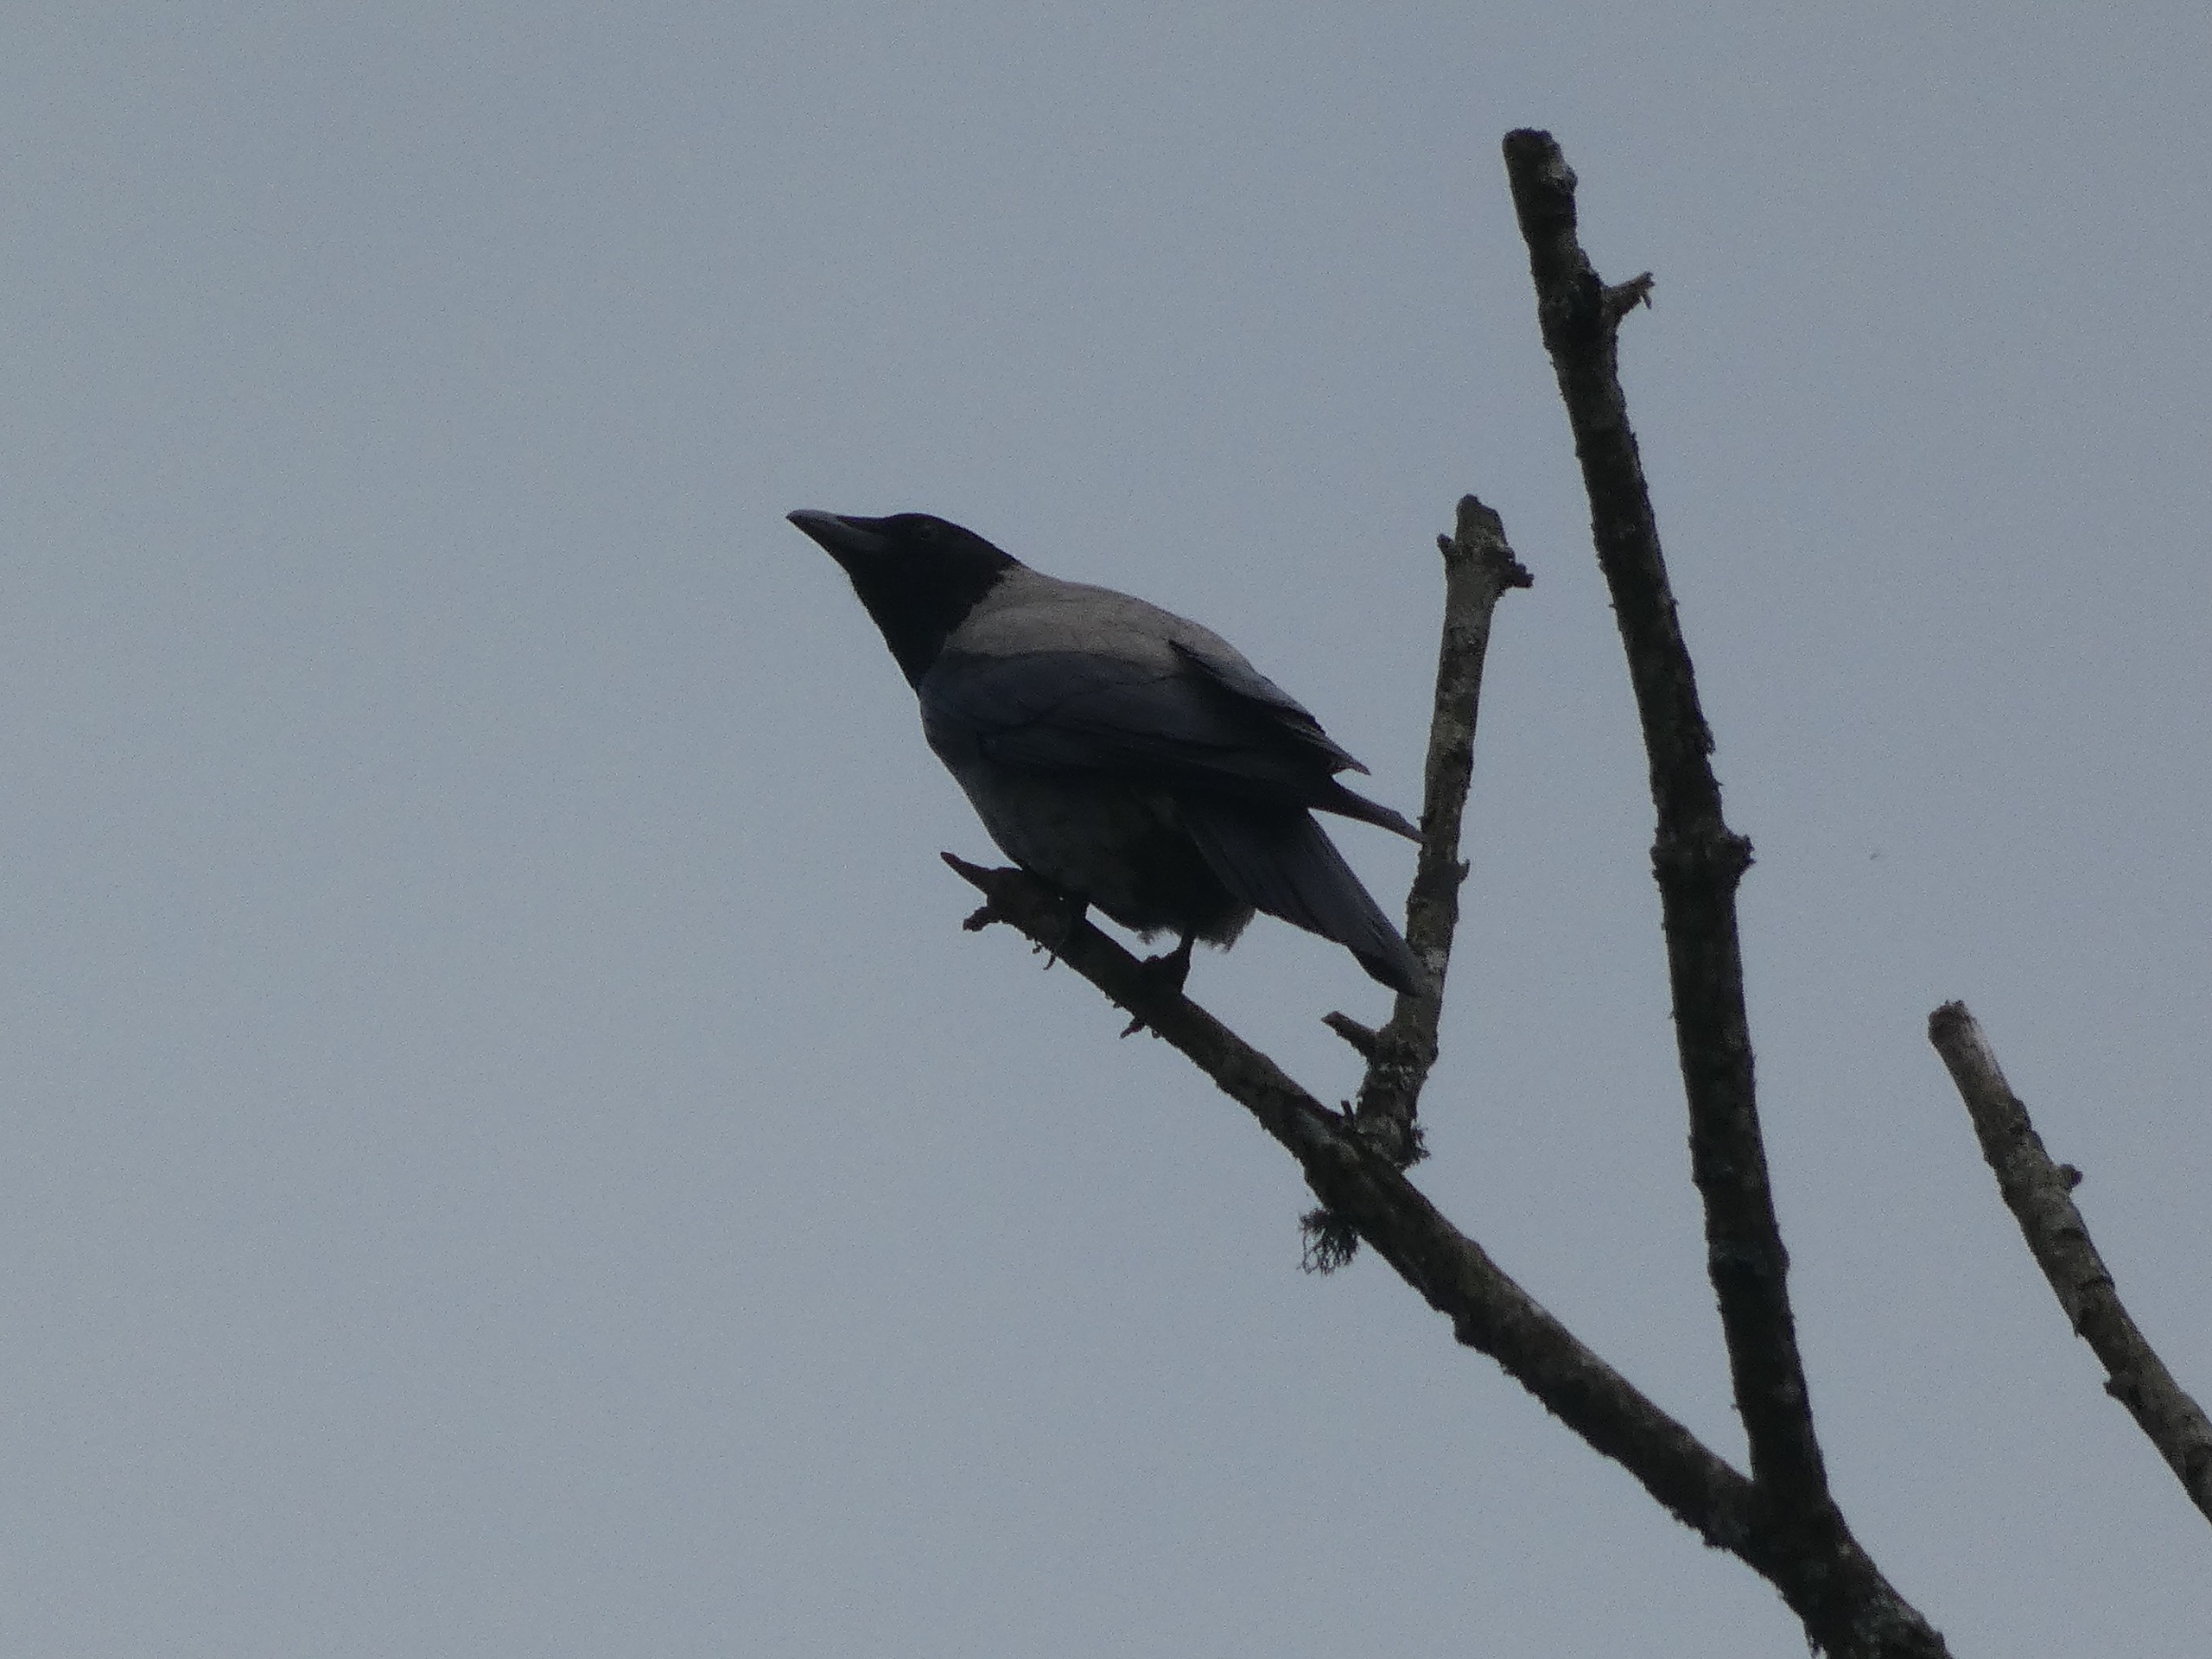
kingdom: Animalia
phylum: Chordata
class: Aves
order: Passeriformes
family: Corvidae
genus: Corvus
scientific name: Corvus cornix
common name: Gråkrage
